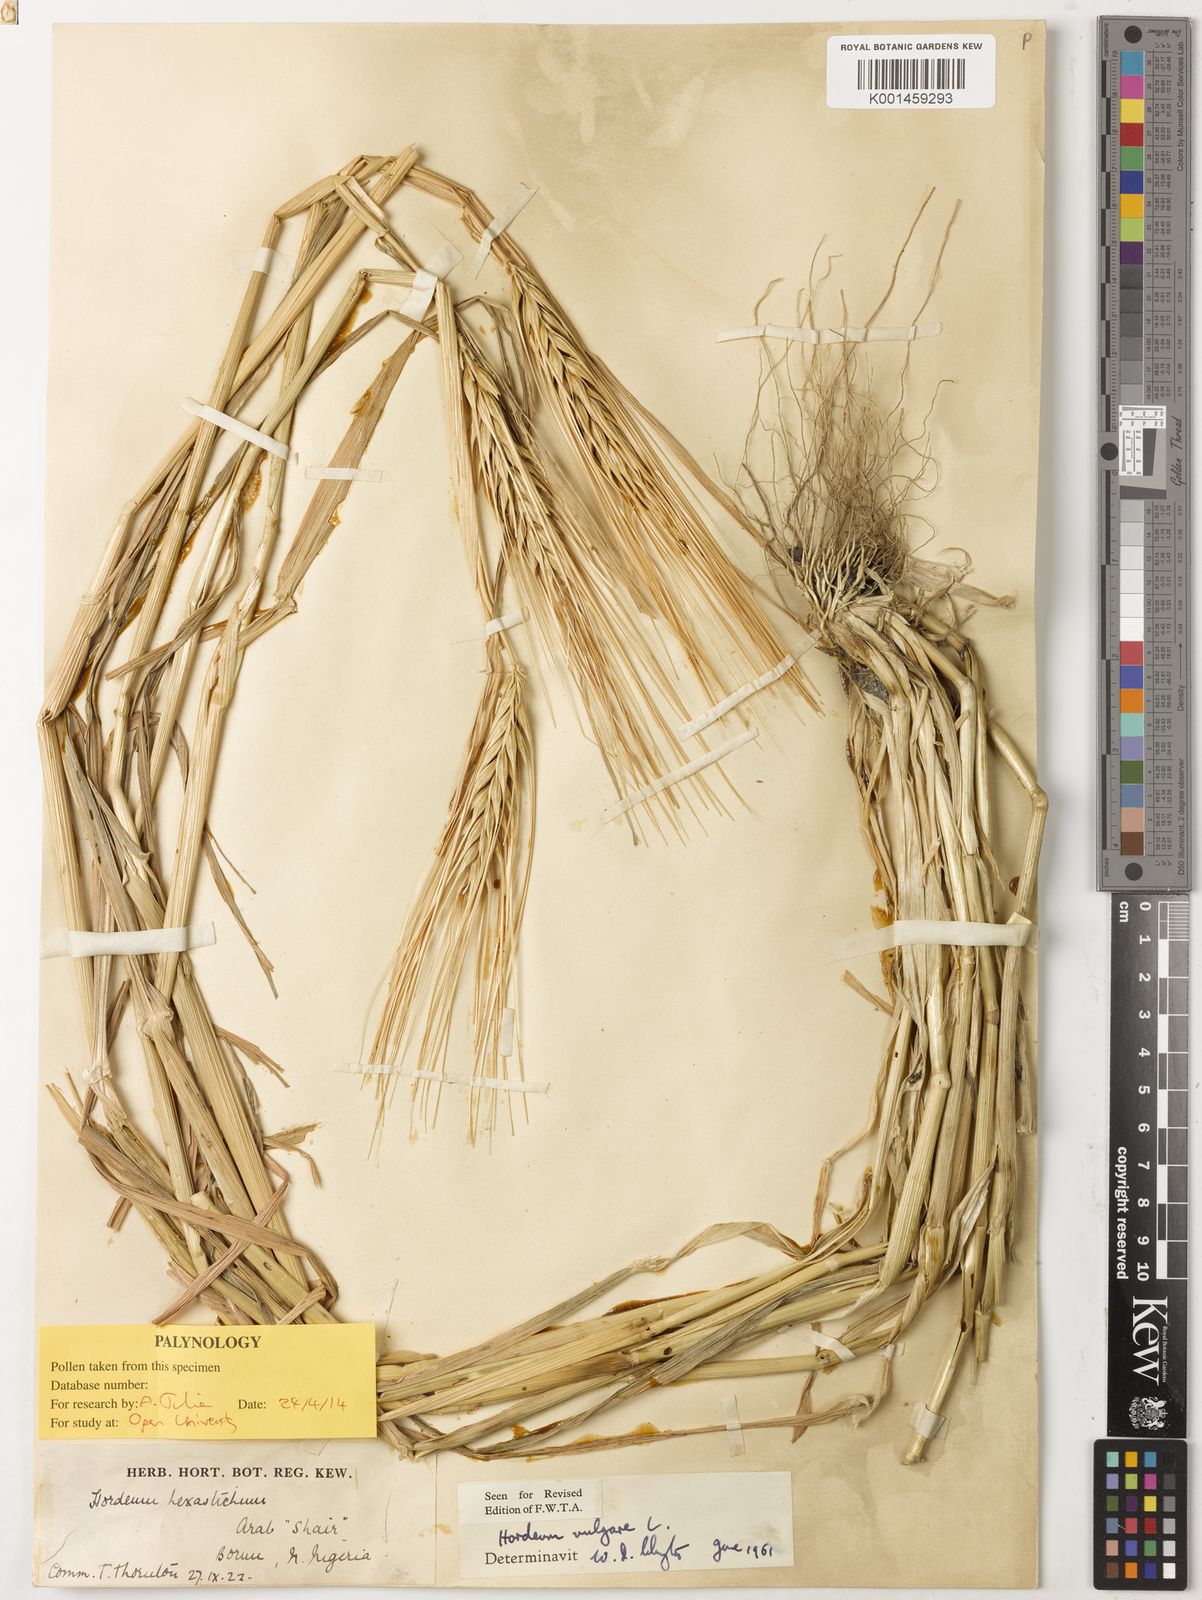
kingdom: Plantae
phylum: Tracheophyta
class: Liliopsida
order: Poales
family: Poaceae
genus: Hordeum
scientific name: Hordeum vulgare
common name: Common barley
